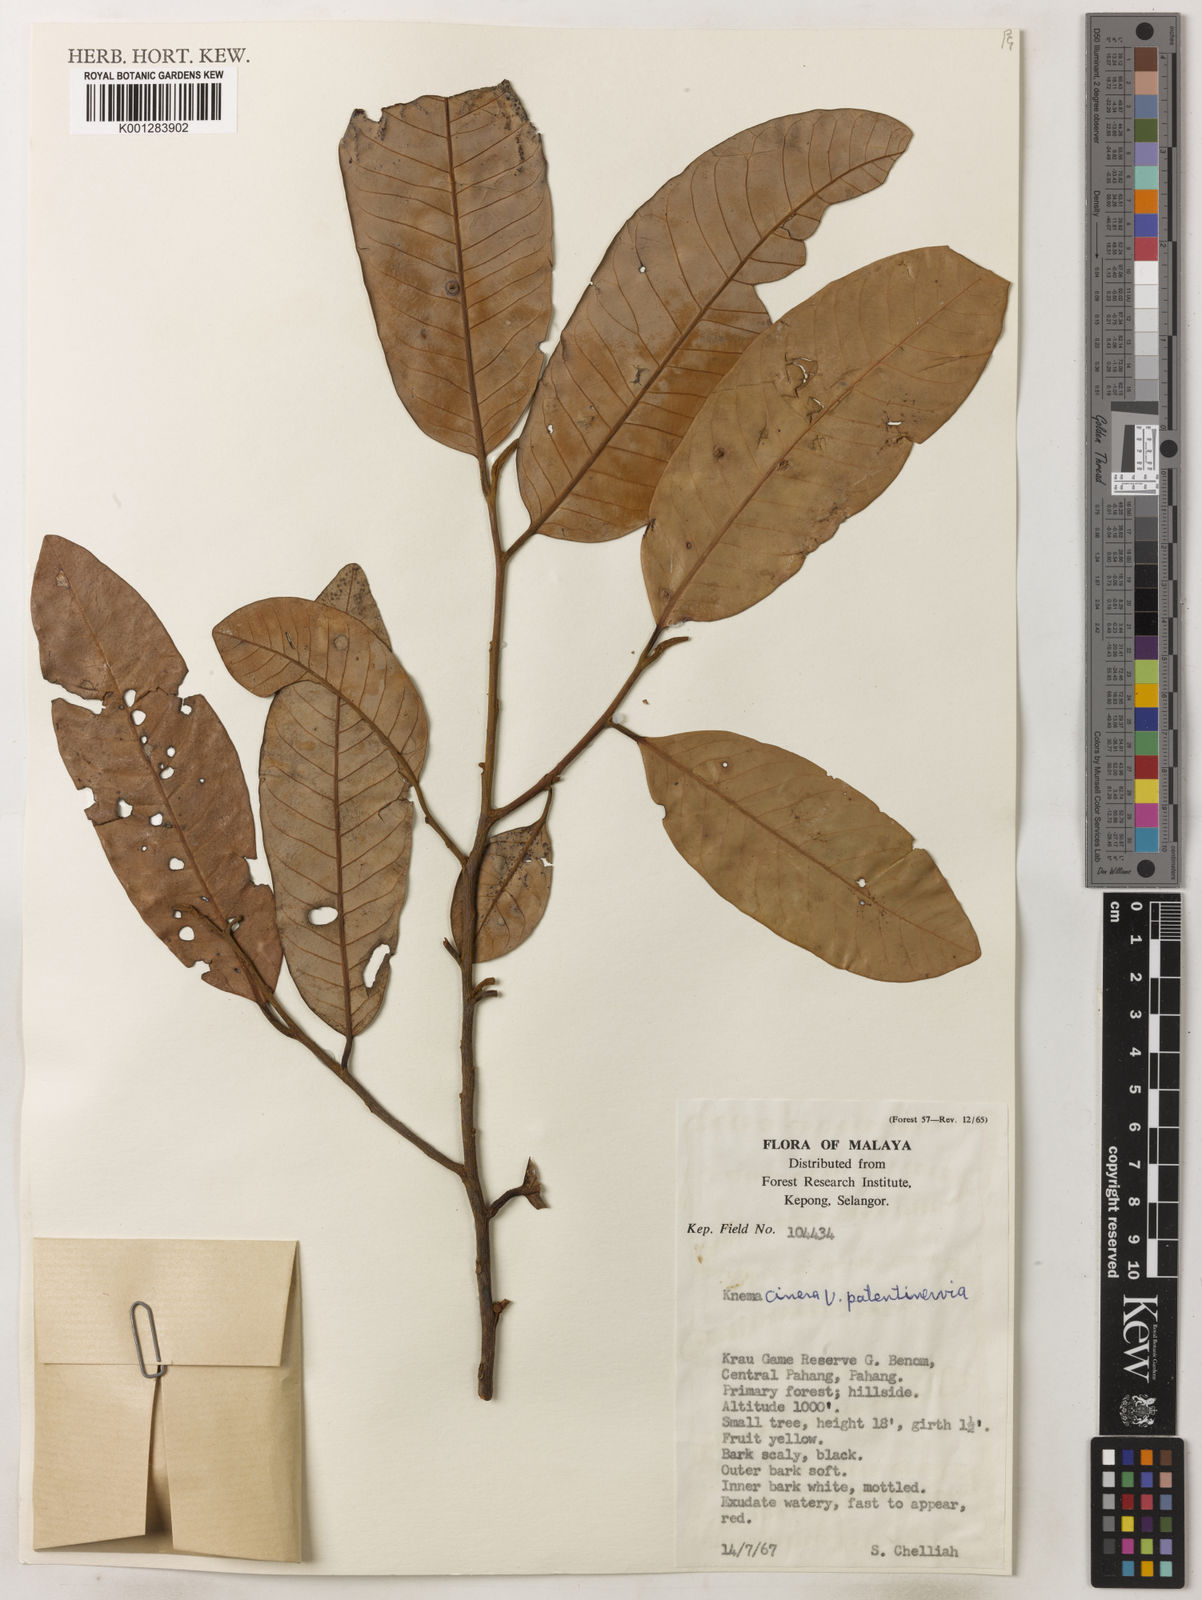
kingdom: Plantae
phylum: Tracheophyta
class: Magnoliopsida
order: Magnoliales
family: Myristicaceae
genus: Knema
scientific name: Knema
